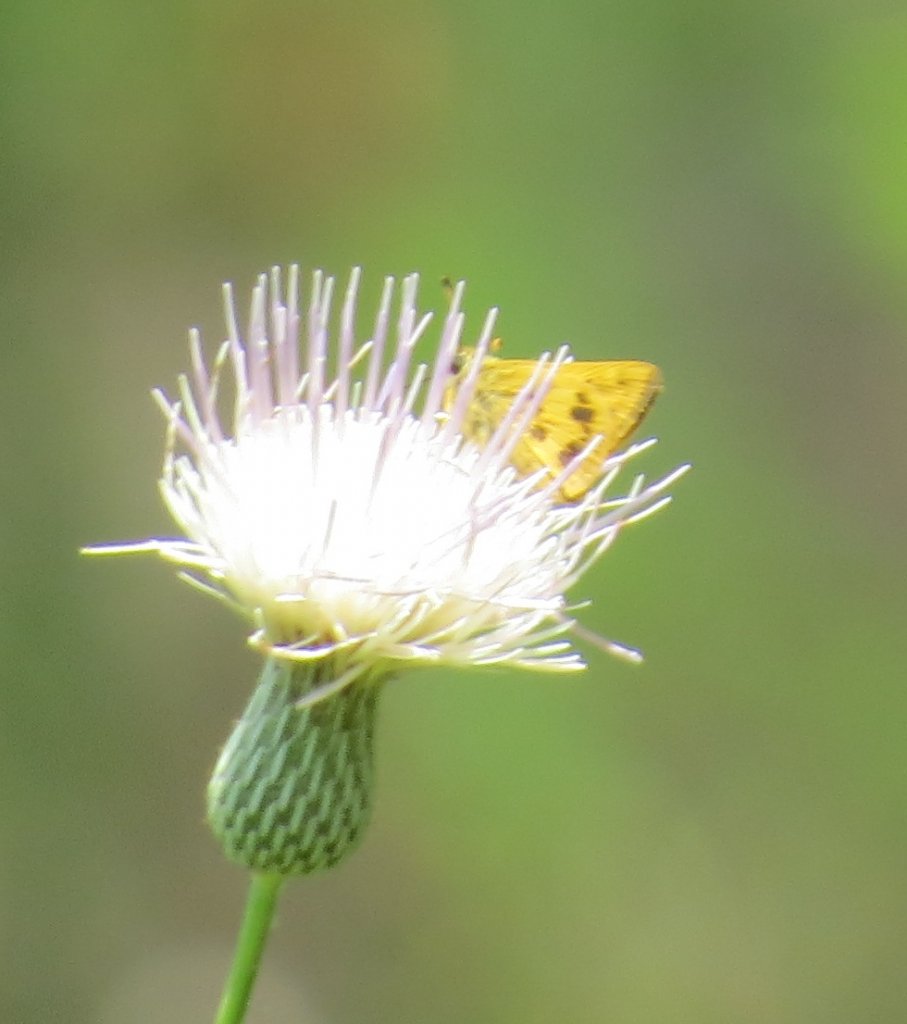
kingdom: Animalia
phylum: Arthropoda
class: Insecta
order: Lepidoptera
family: Hesperiidae
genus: Polites
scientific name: Polites vibex
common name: Whirlabout
